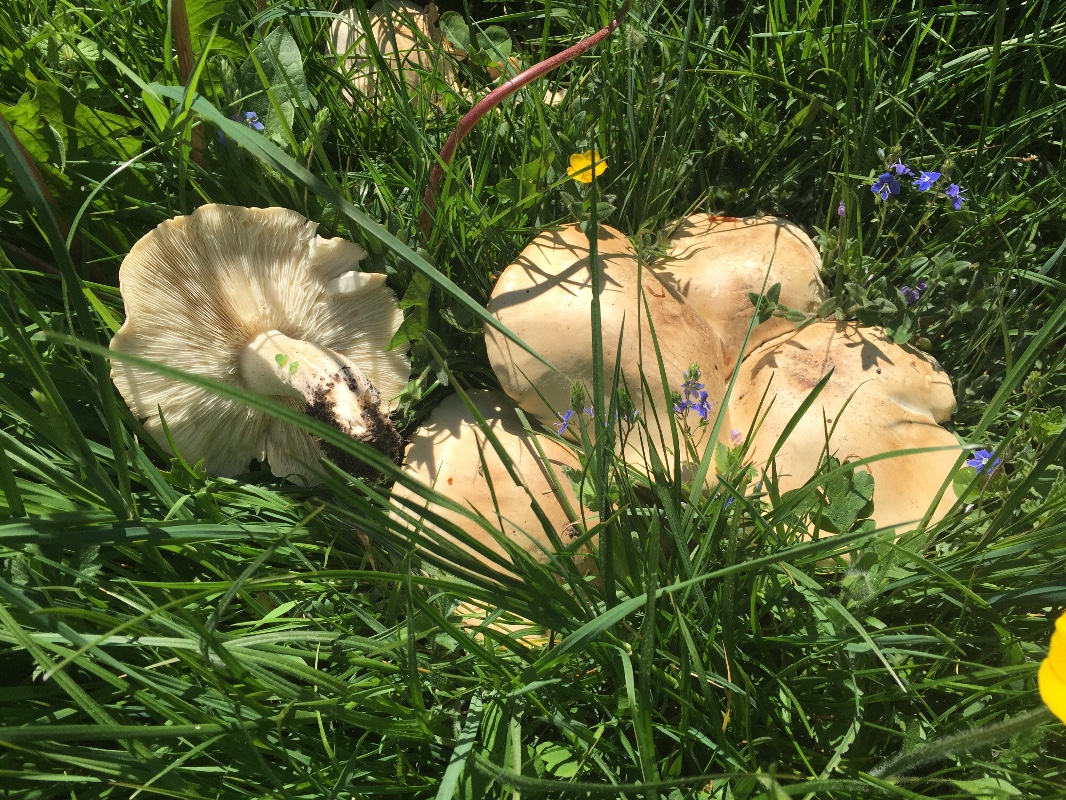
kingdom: Fungi
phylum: Basidiomycota
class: Agaricomycetes
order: Agaricales
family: Lyophyllaceae
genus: Calocybe
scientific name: Calocybe gambosa
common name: vårmusseron
